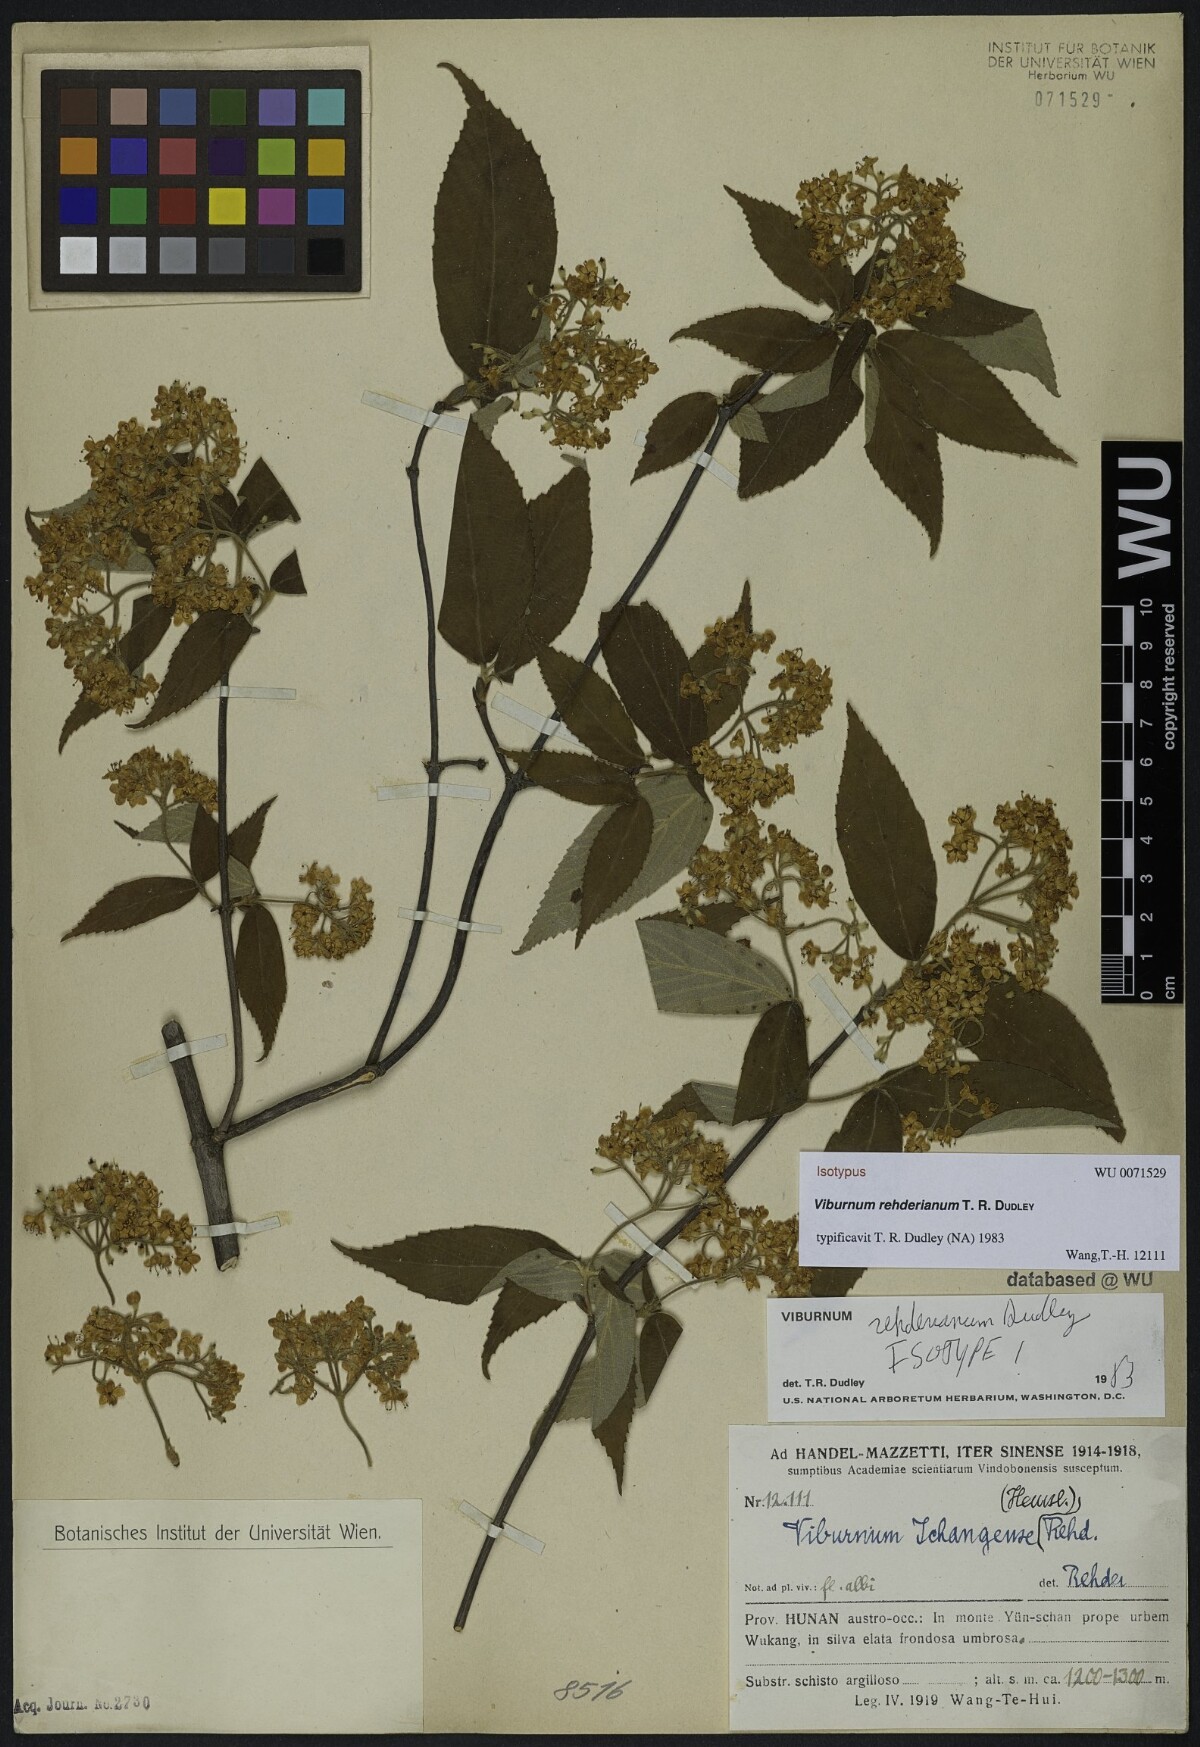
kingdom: Plantae
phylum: Tracheophyta
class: Magnoliopsida
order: Dipsacales
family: Viburnaceae
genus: Viburnum
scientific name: Viburnum taitoense
